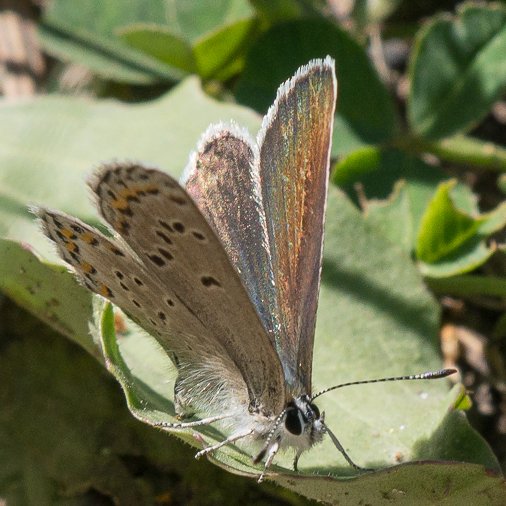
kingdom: Animalia
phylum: Arthropoda
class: Insecta
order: Lepidoptera
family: Lycaenidae
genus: Lycaeides
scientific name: Lycaeides idas
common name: Northern Blue
